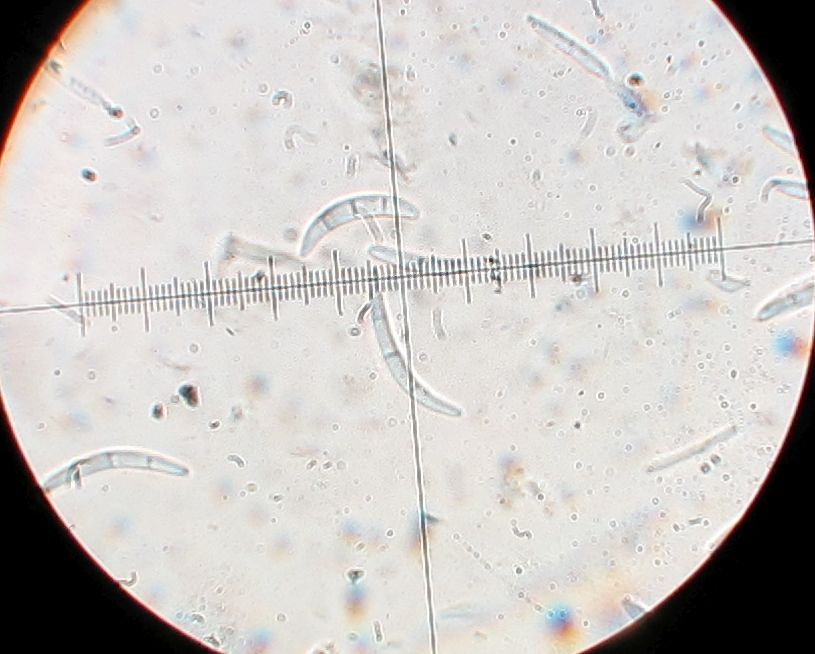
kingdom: Fungi
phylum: Ascomycota
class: Leotiomycetes
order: Helotiales
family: Godroniaceae
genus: Topospora
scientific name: Topospora
